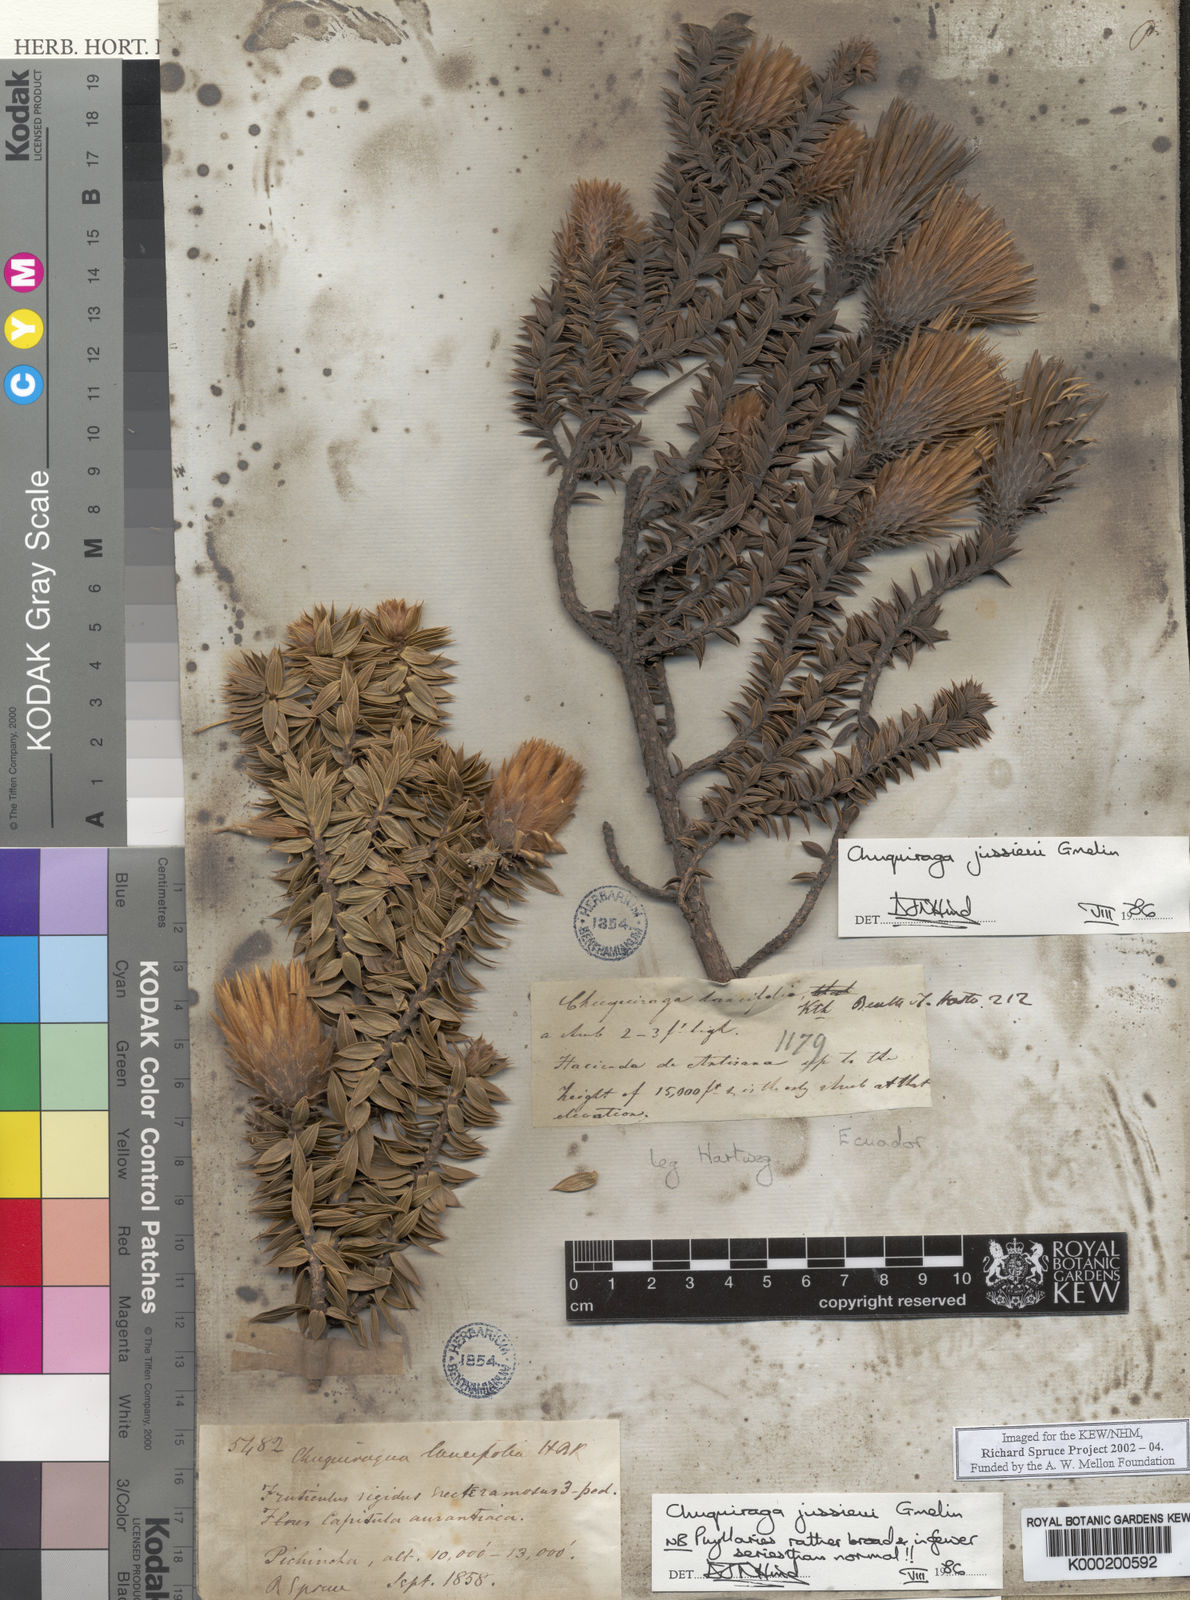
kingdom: Plantae
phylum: Tracheophyta
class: Magnoliopsida
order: Asterales
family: Asteraceae
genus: Chuquiraga
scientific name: Chuquiraga jussieui
